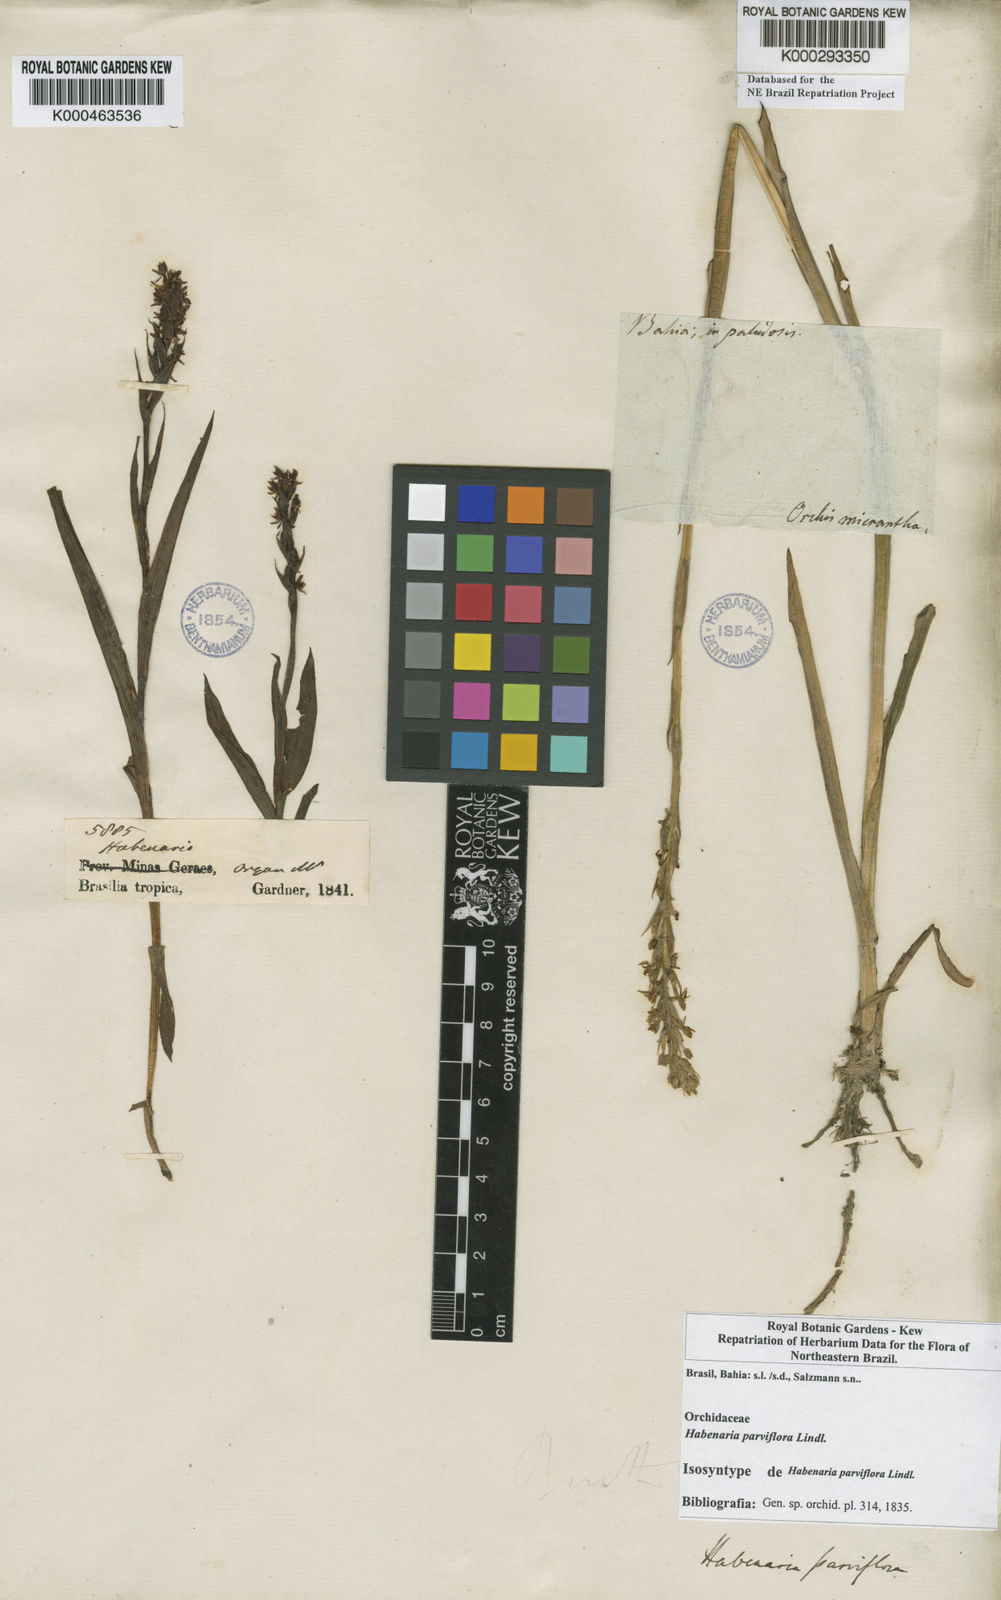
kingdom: Plantae
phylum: Tracheophyta
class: Liliopsida
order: Asparagales
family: Orchidaceae
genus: Habenaria
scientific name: Habenaria parviflora
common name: Small flowered habenaria
